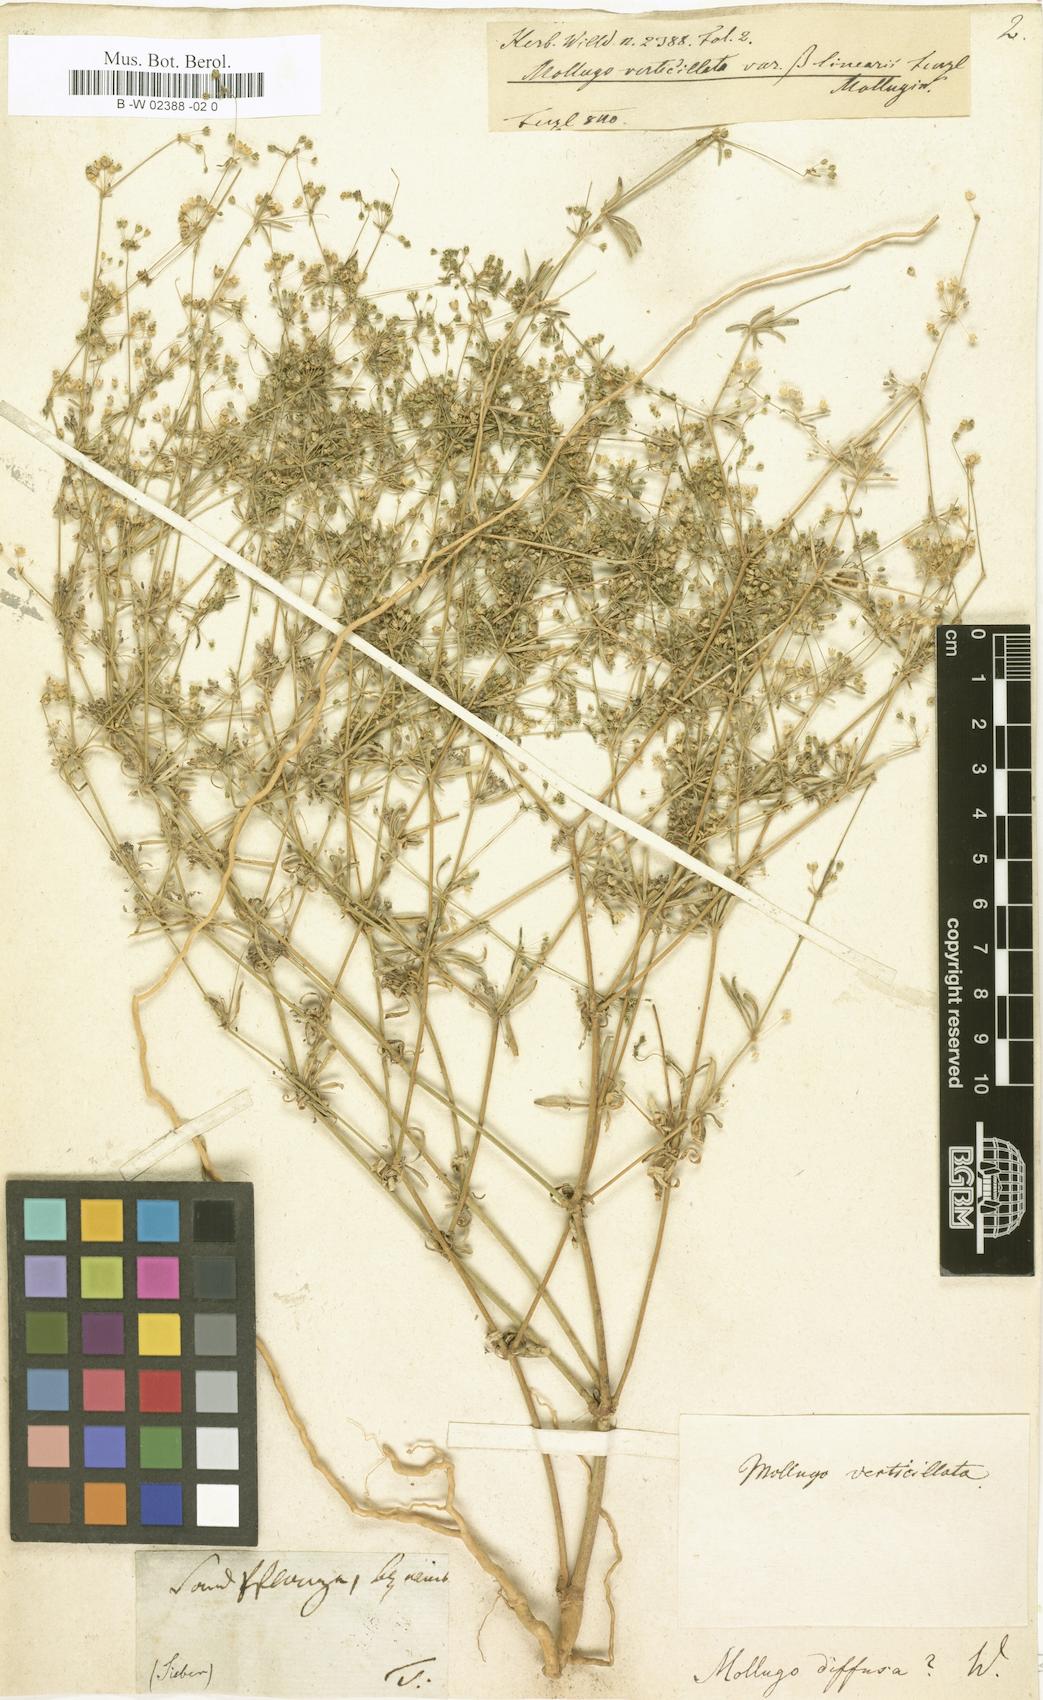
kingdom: Plantae
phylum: Tracheophyta
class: Magnoliopsida
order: Caryophyllales
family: Molluginaceae
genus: Mollugo
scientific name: Mollugo verticillata
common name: Green carpetweed
